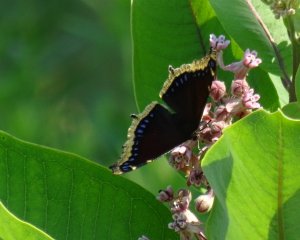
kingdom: Animalia
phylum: Arthropoda
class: Insecta
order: Lepidoptera
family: Nymphalidae
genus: Nymphalis
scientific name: Nymphalis antiopa
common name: Mourning Cloak
